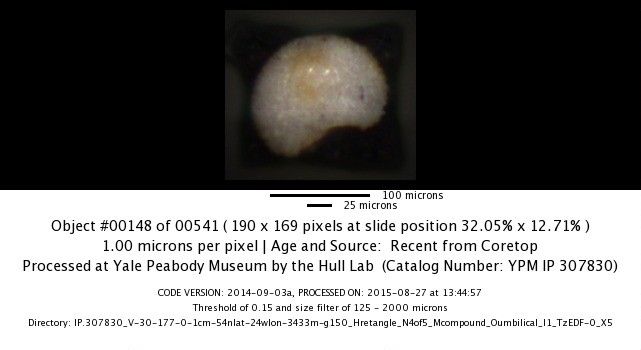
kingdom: Chromista
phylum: Foraminifera
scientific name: Foraminifera
